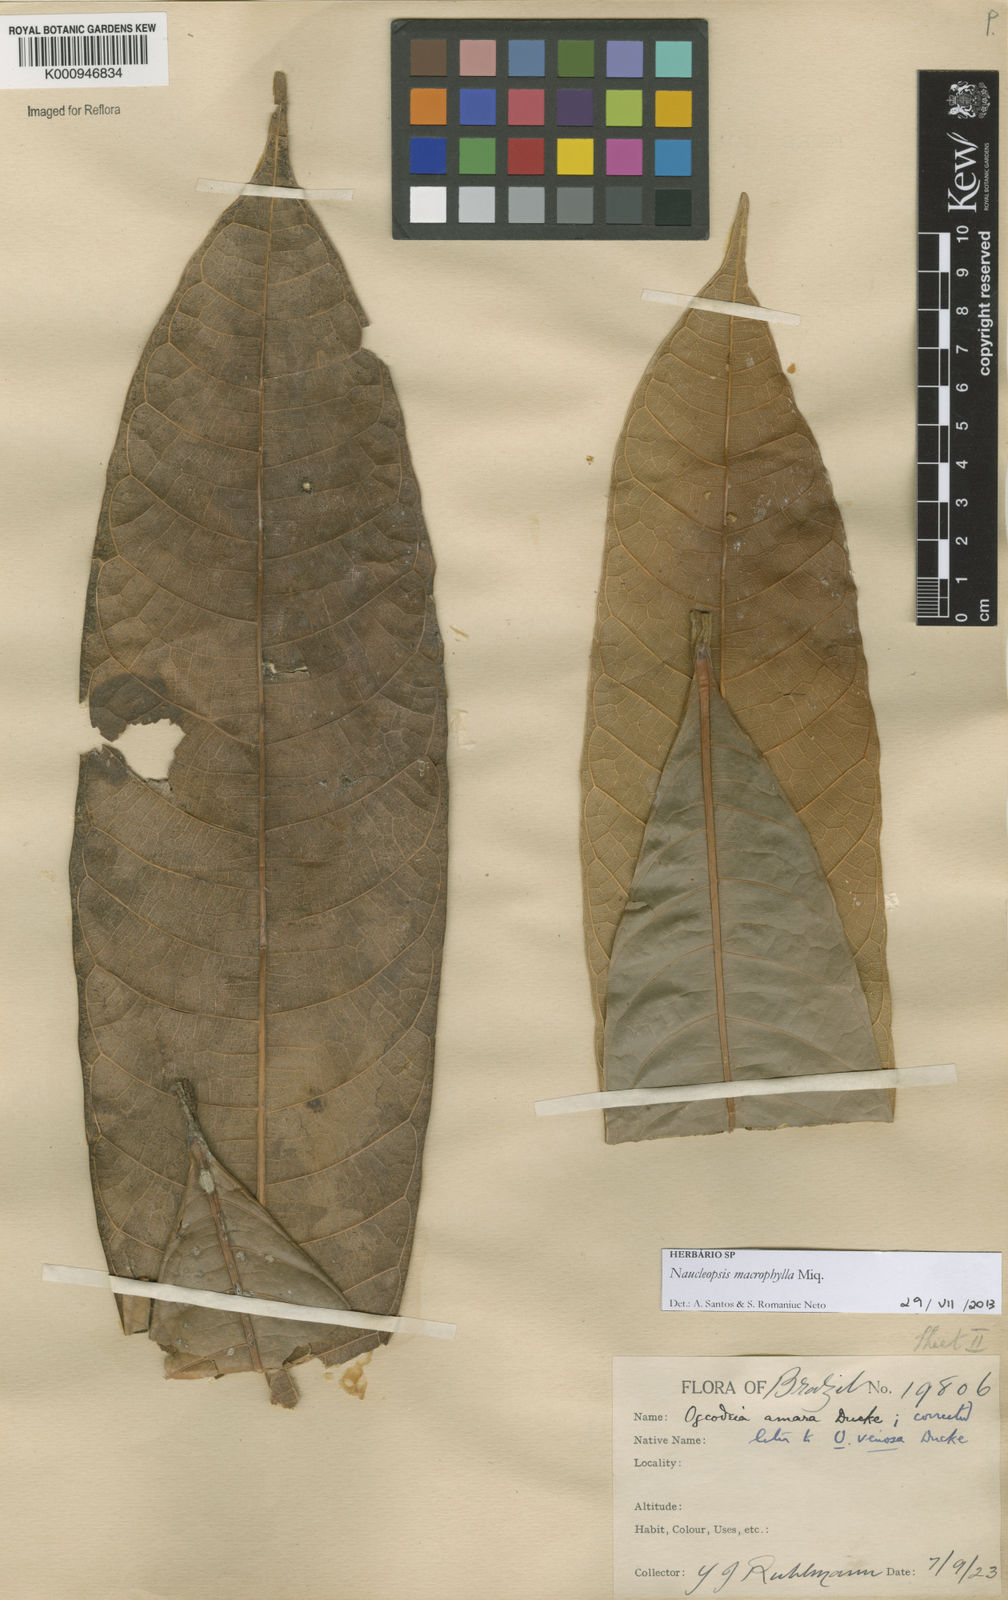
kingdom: Plantae
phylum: Tracheophyta
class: Magnoliopsida
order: Rosales
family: Moraceae
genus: Naucleopsis
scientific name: Naucleopsis macrophylla
